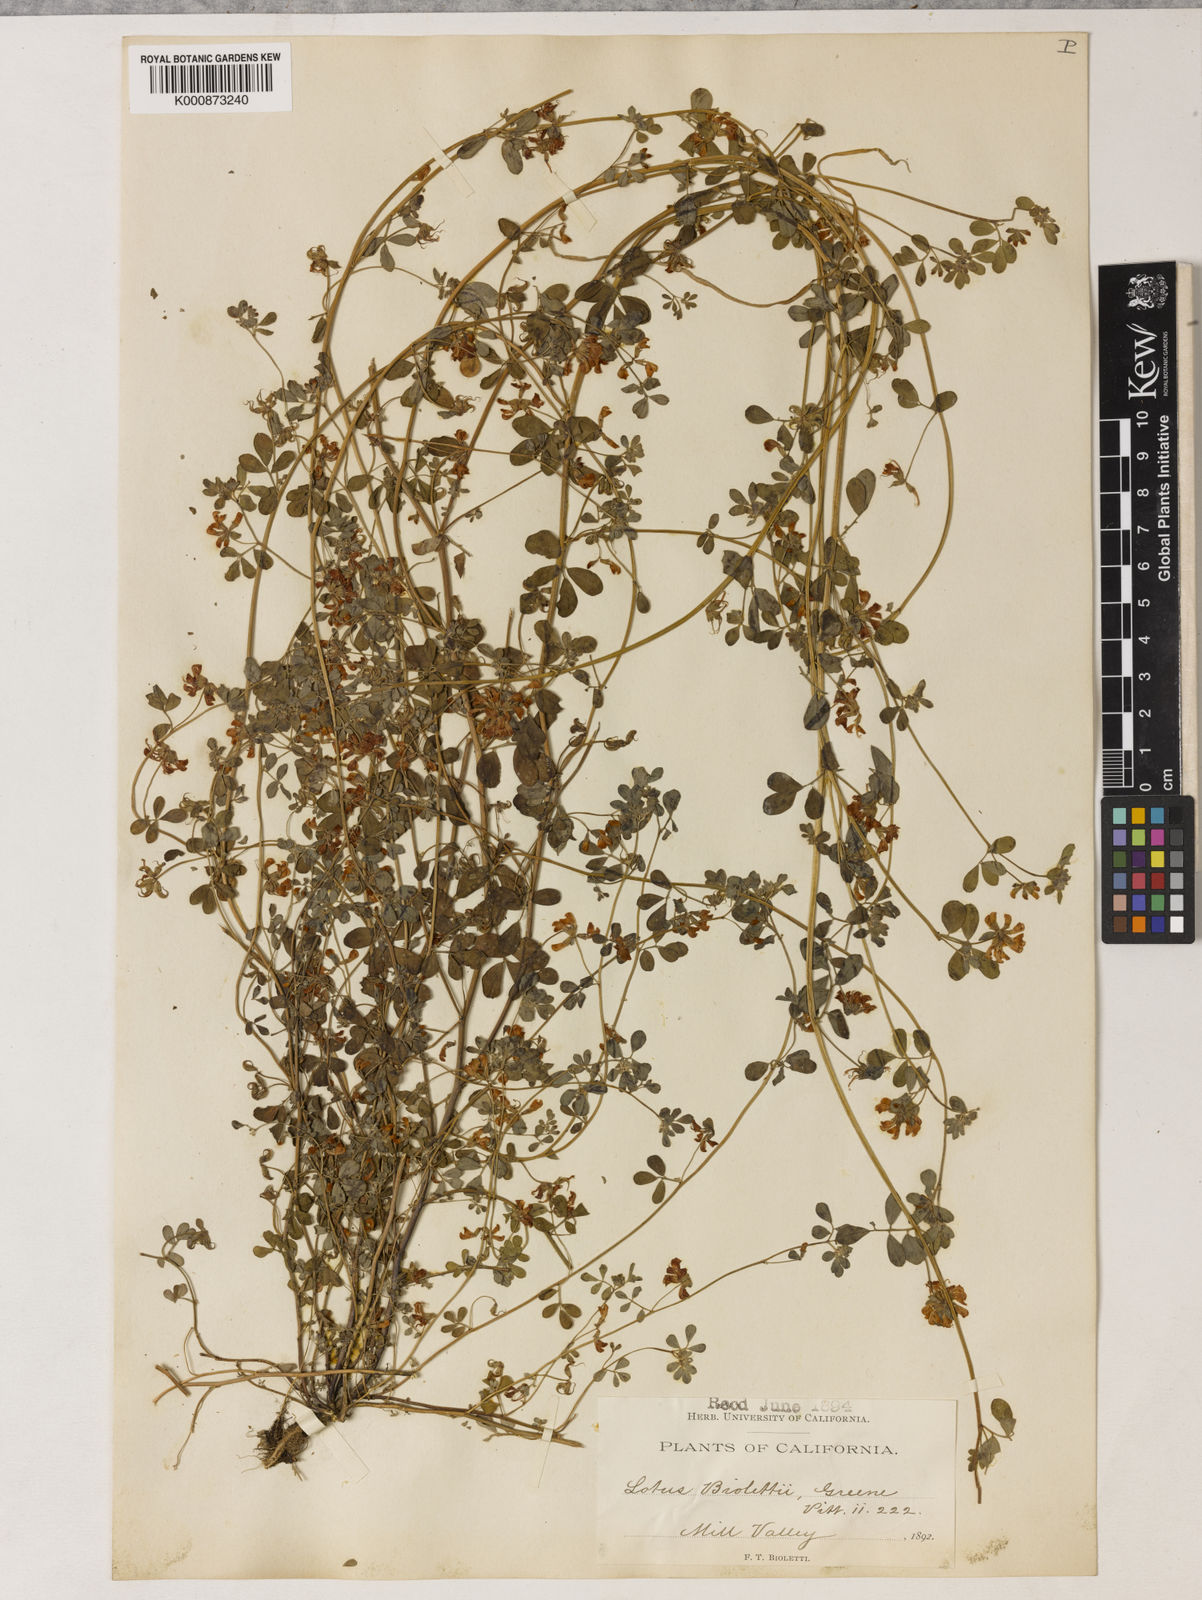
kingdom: Plantae
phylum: Tracheophyta
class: Magnoliopsida
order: Fabales
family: Fabaceae
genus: Acmispon
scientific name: Acmispon junceus
